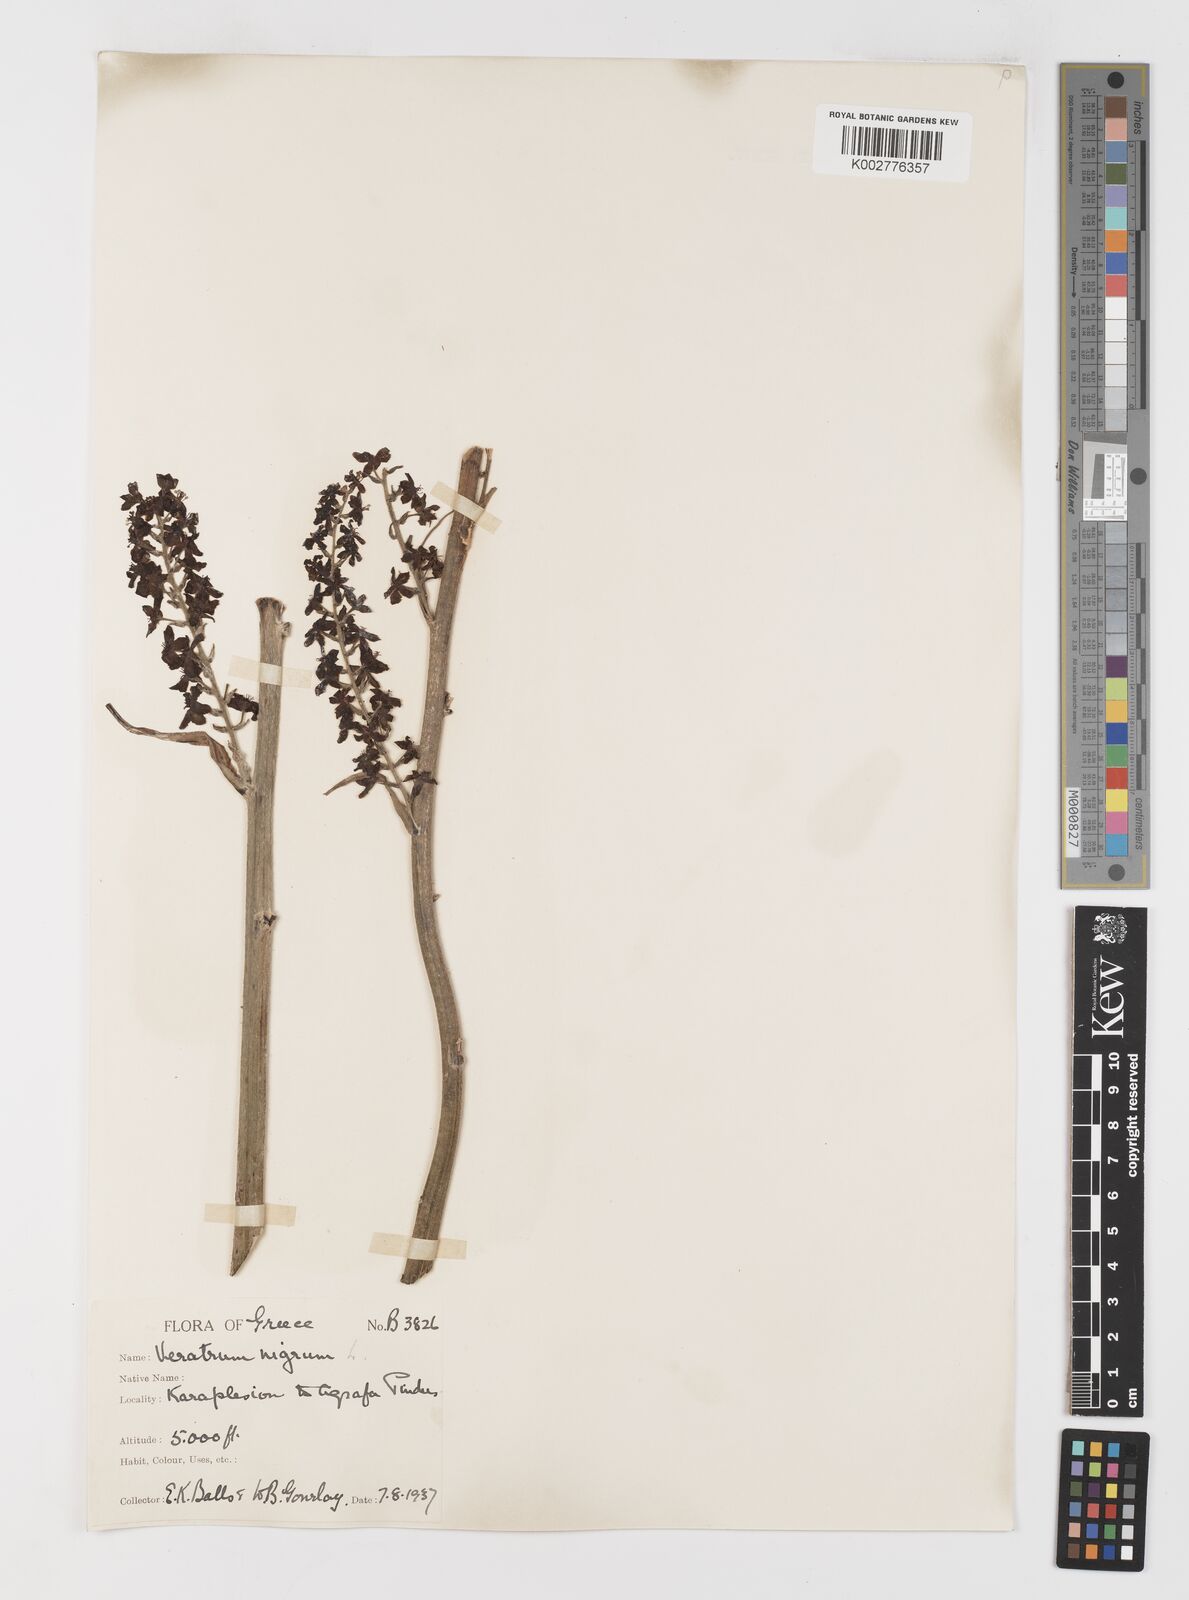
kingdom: Plantae
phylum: Tracheophyta
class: Liliopsida
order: Liliales
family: Melanthiaceae
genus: Veratrum
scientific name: Veratrum nigrum
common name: Black veratrum
